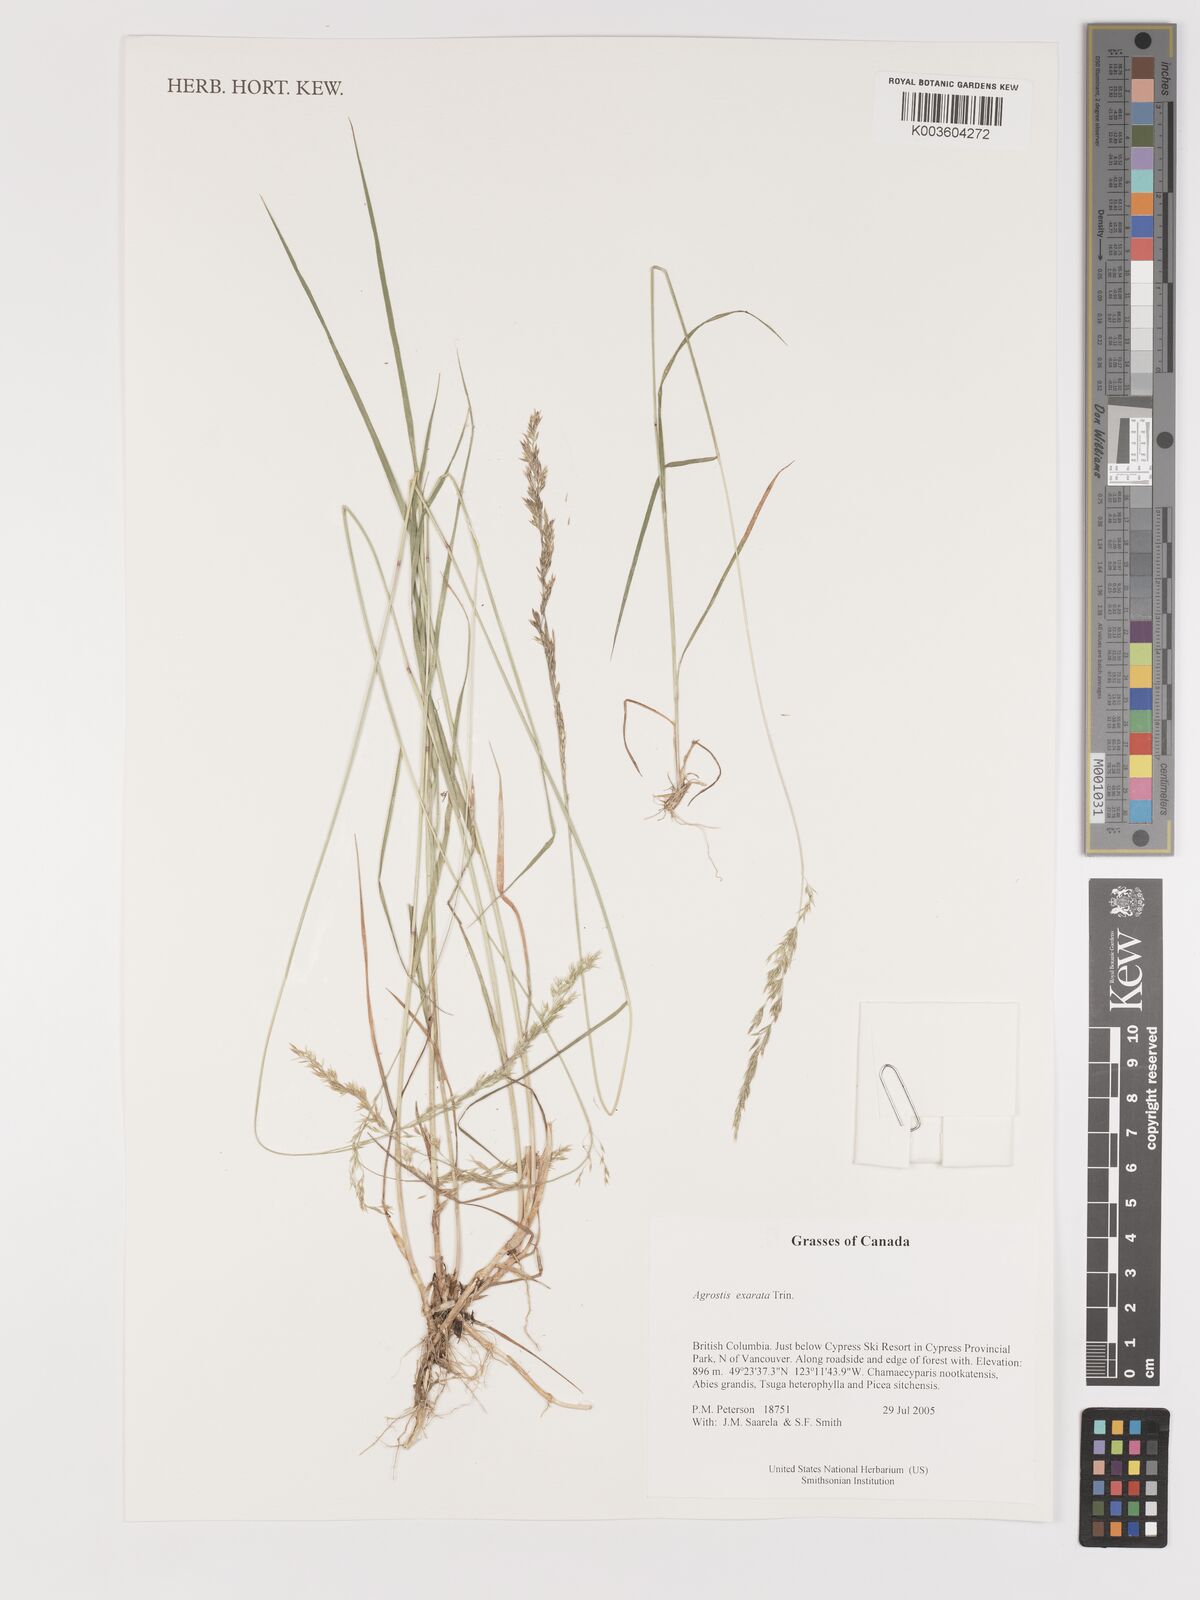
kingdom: Plantae
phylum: Tracheophyta
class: Liliopsida
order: Poales
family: Poaceae
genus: Agrostis
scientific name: Agrostis exarata
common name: Spike bent
